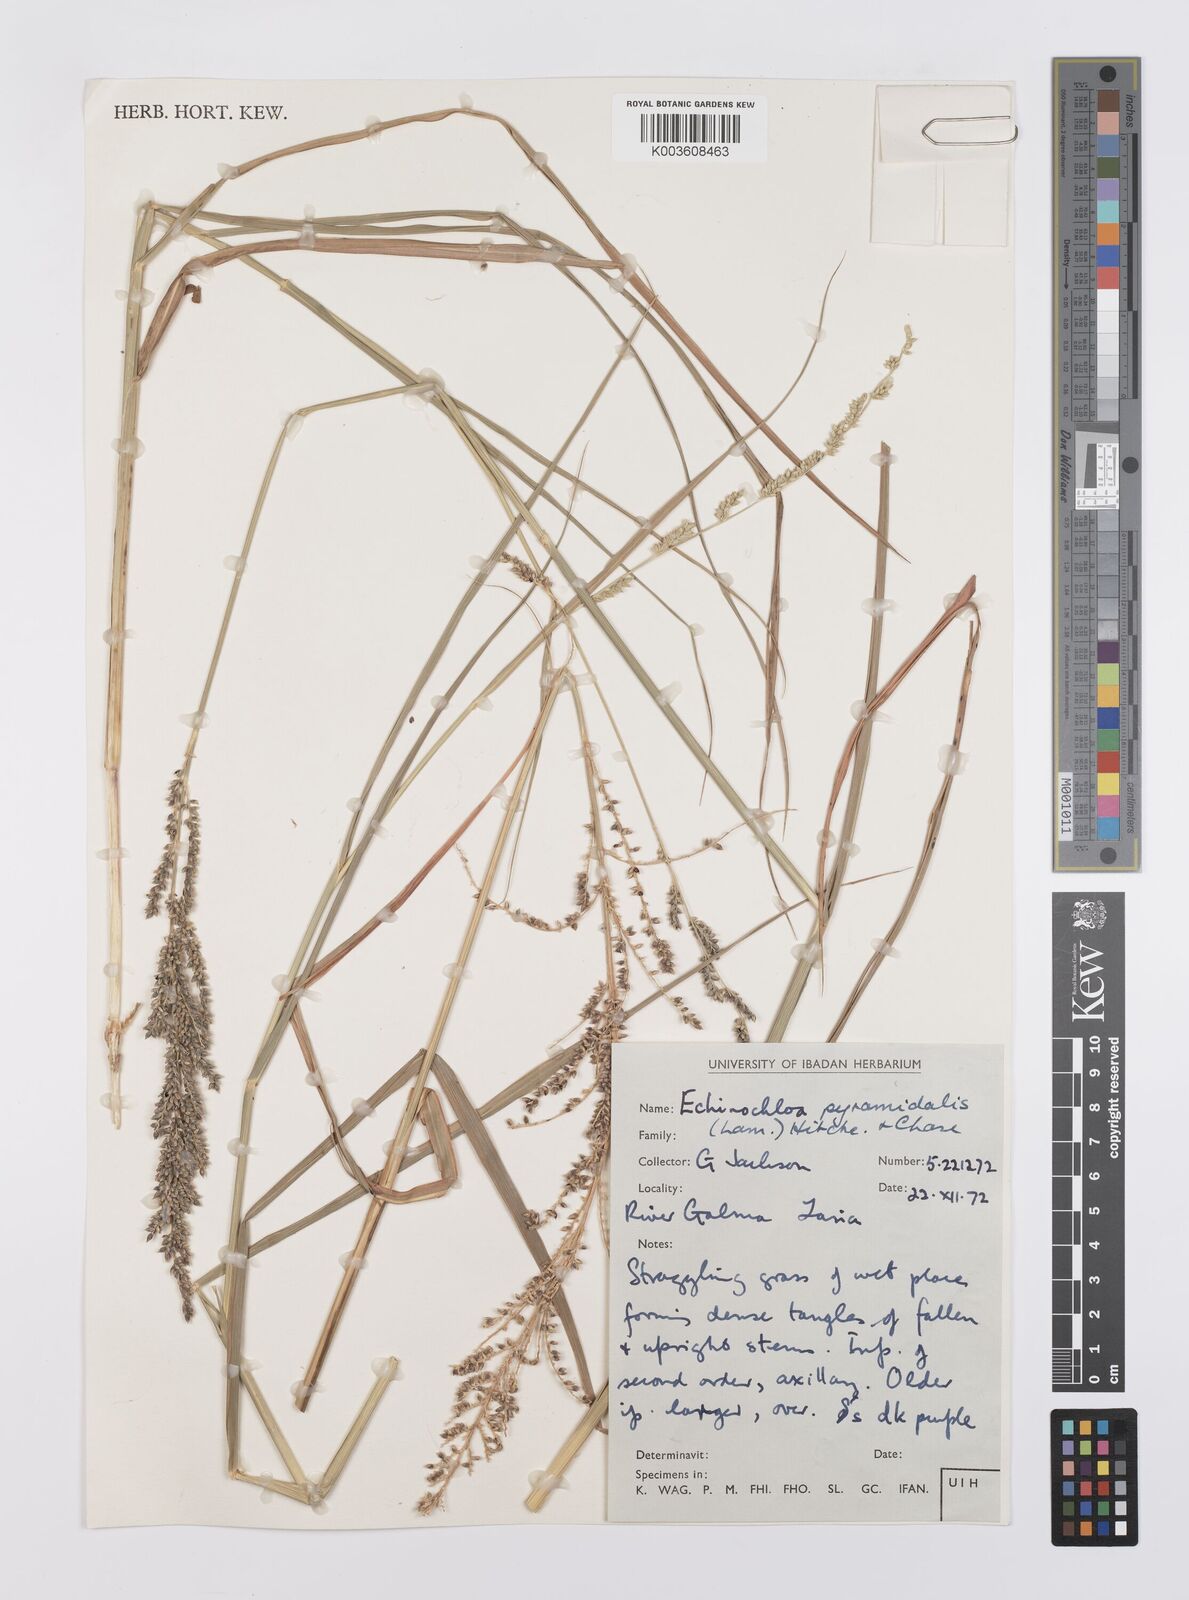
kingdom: Plantae
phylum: Tracheophyta
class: Liliopsida
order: Poales
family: Poaceae
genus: Echinochloa
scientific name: Echinochloa pyramidalis
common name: Antelope grass
